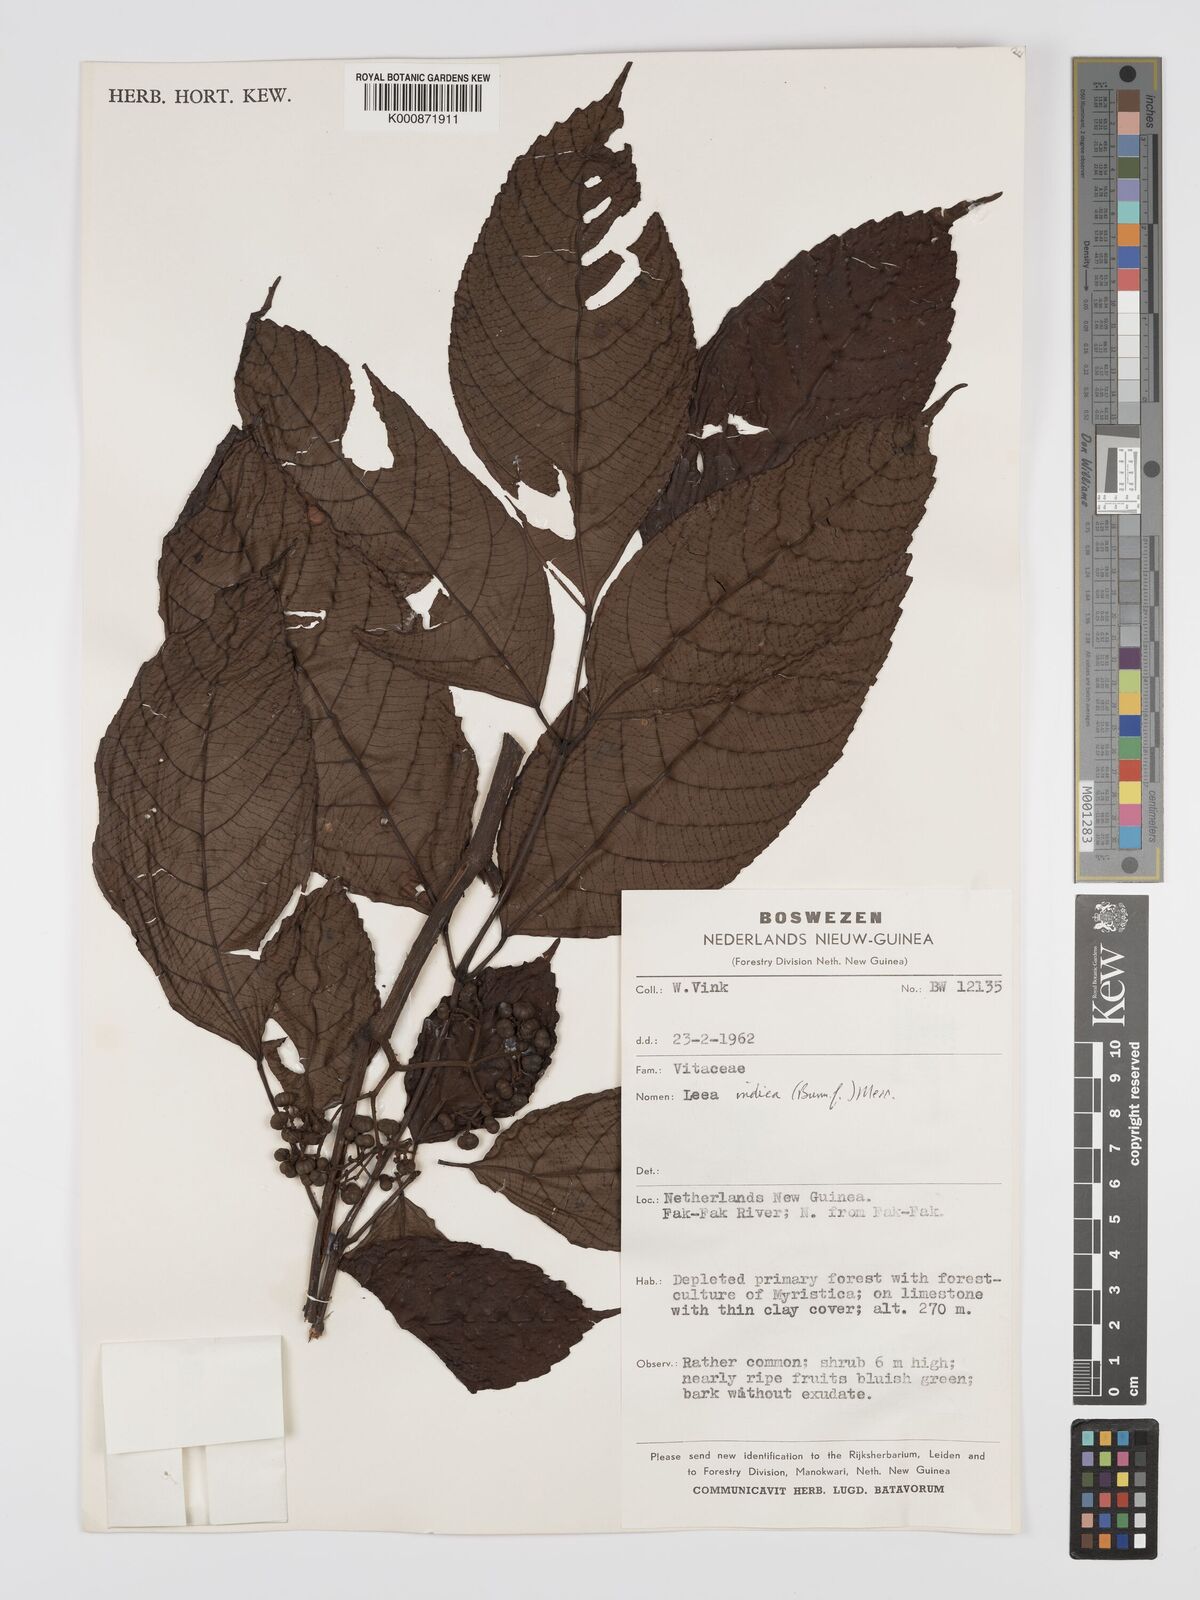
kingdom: Plantae
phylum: Tracheophyta
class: Magnoliopsida
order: Vitales
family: Vitaceae
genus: Leea
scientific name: Leea indica
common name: Bandicoot-berry
